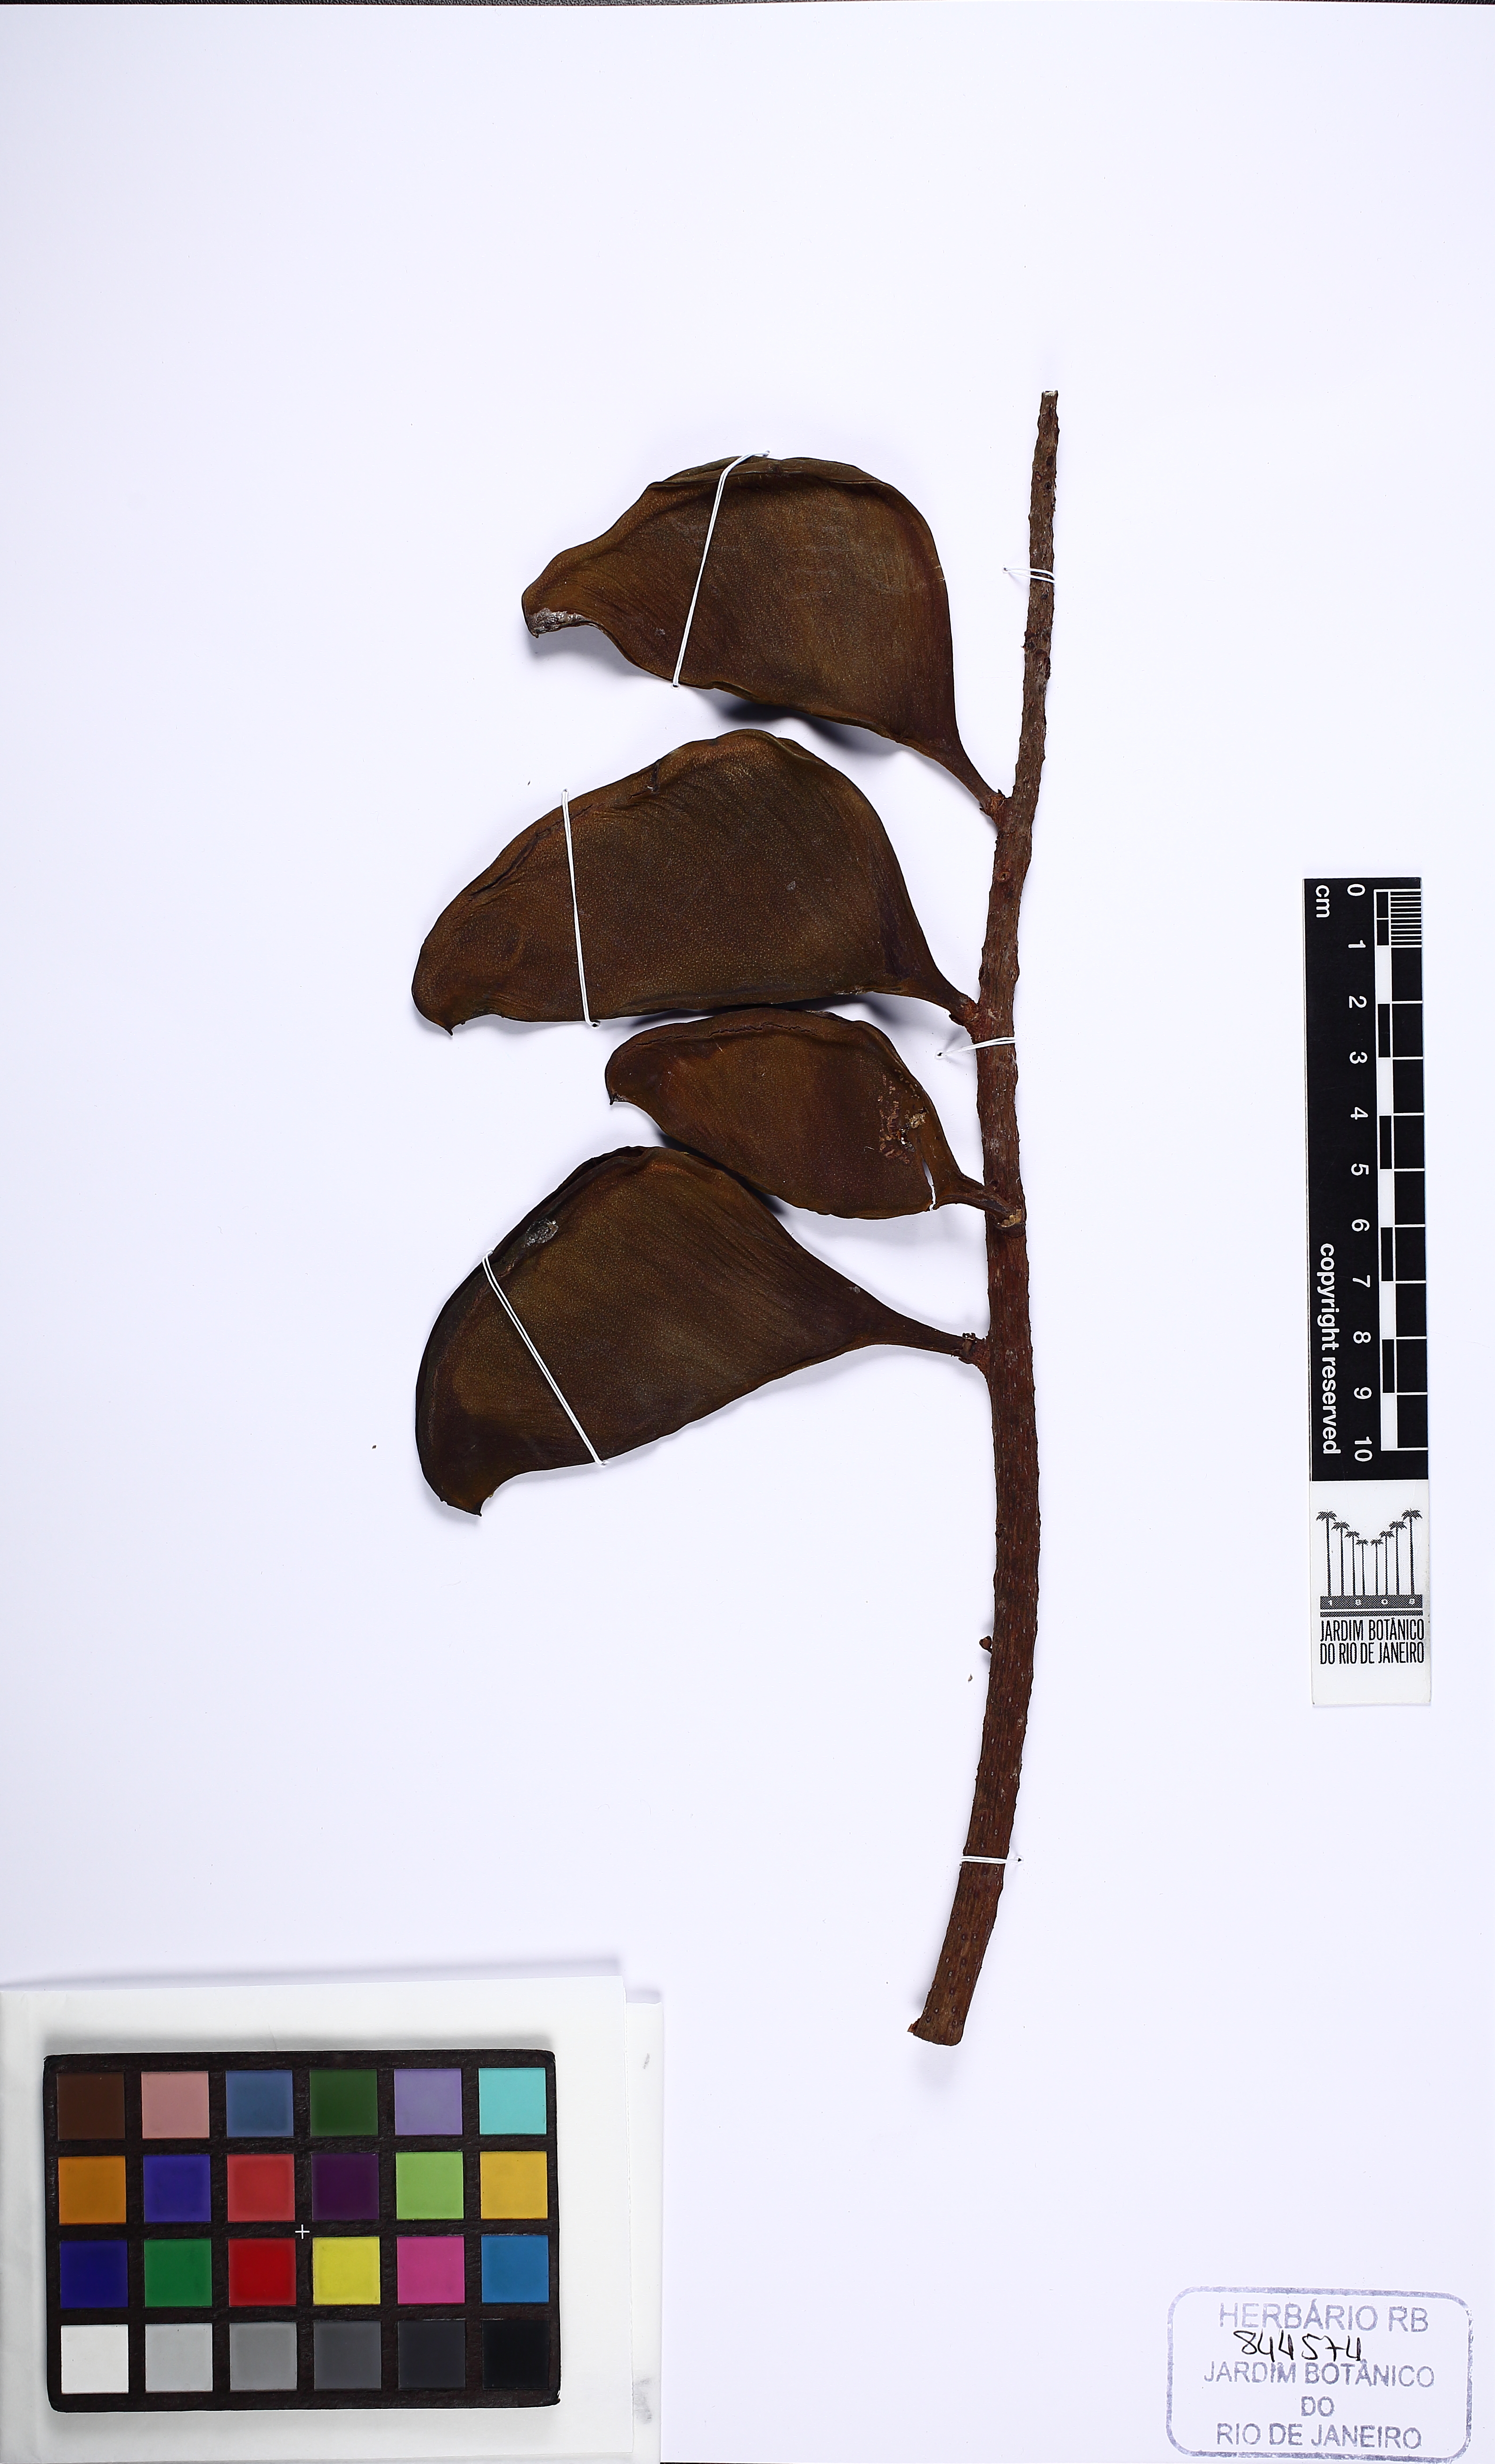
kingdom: Plantae
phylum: Tracheophyta
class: Magnoliopsida
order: Fabales
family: Fabaceae
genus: Dimorphandra
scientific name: Dimorphandra macrostachya
